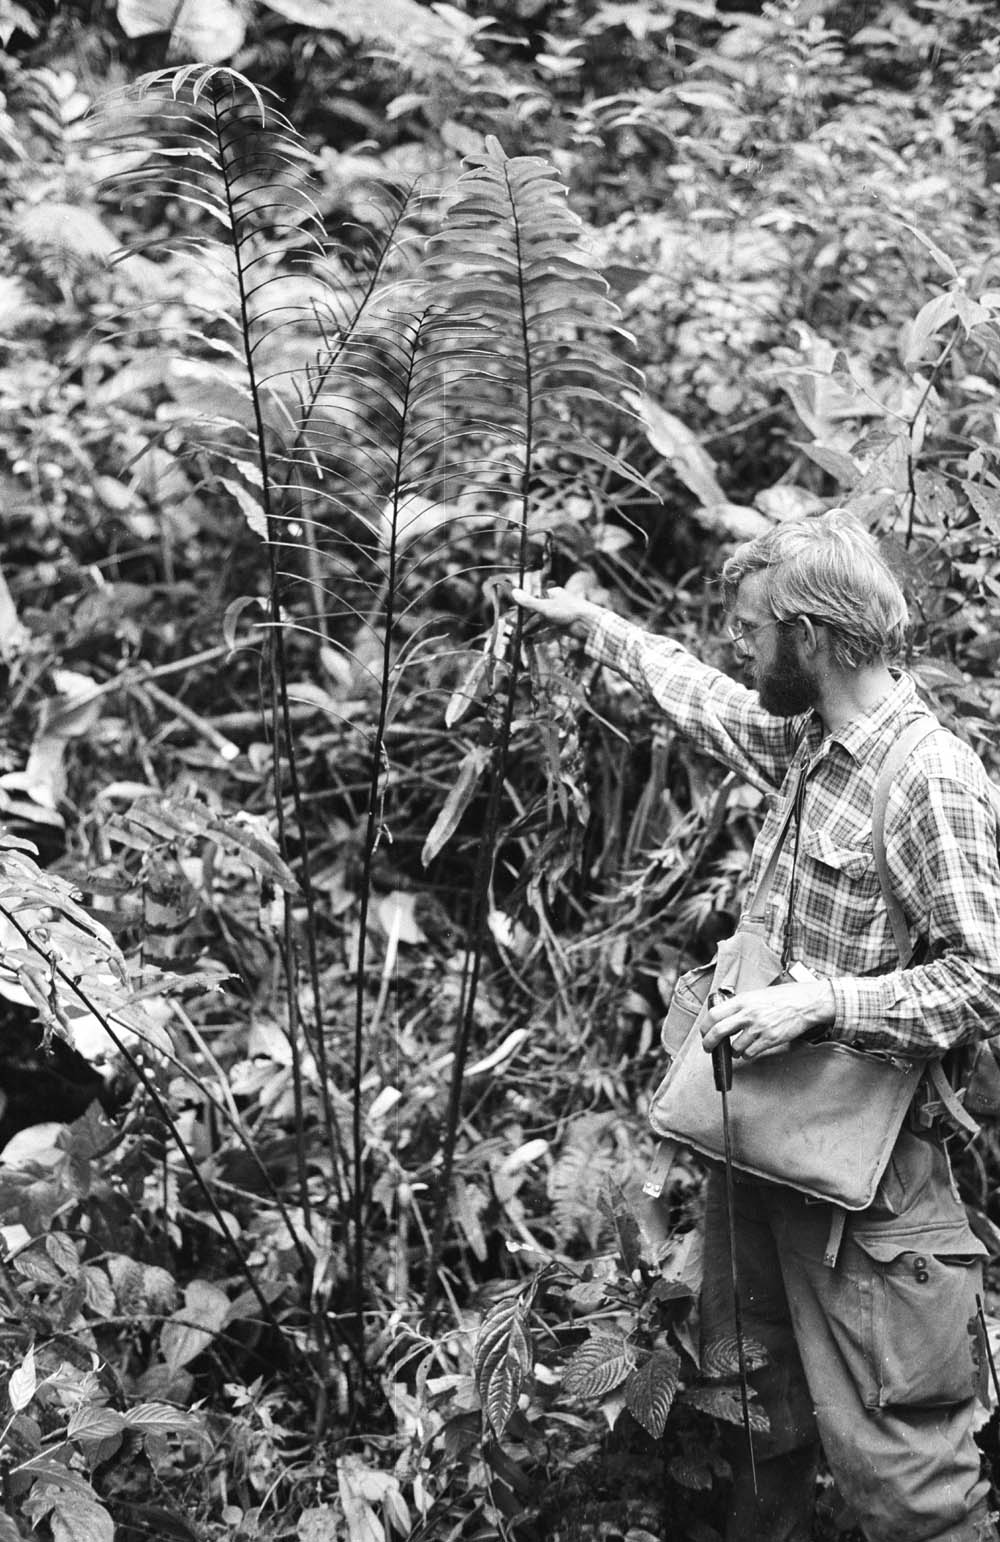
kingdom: Plantae
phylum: Tracheophyta
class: Polypodiopsida
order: Polypodiales
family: Blechnaceae
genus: Parablechnum
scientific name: Parablechnum lineatum
